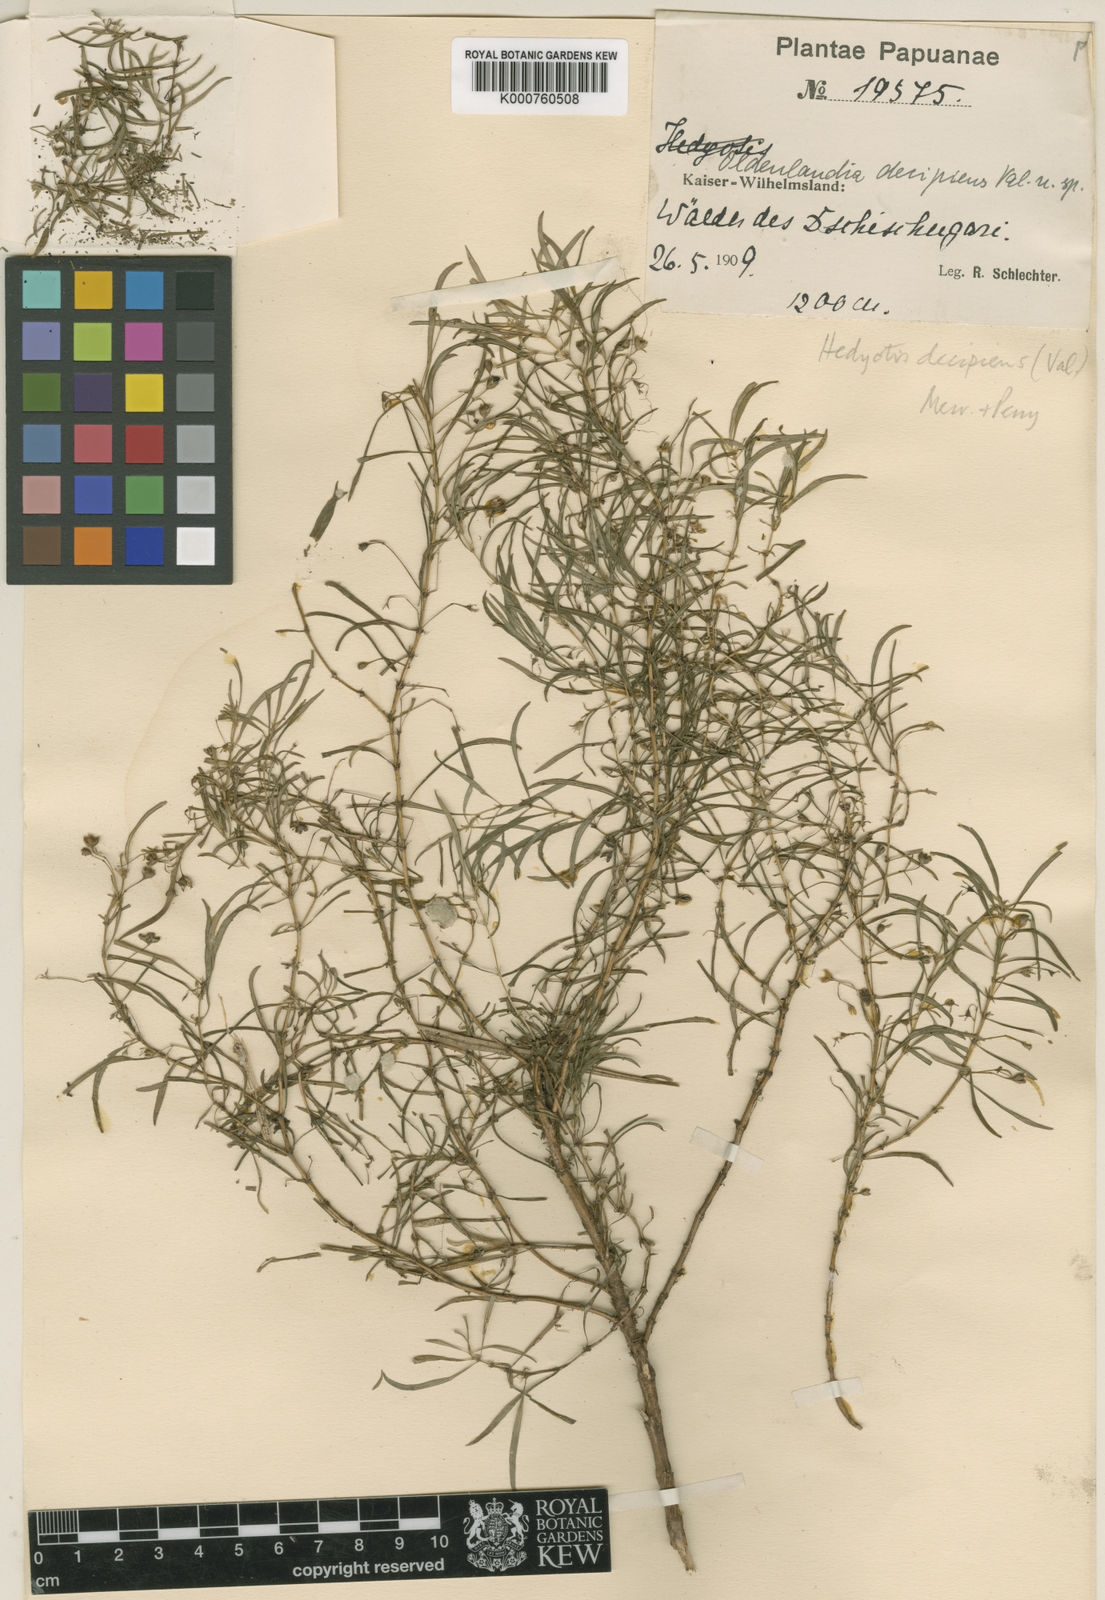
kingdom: Plantae
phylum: Tracheophyta
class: Magnoliopsida
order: Gentianales
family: Rubiaceae
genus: Oldenlandia
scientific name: Oldenlandia decipiens
